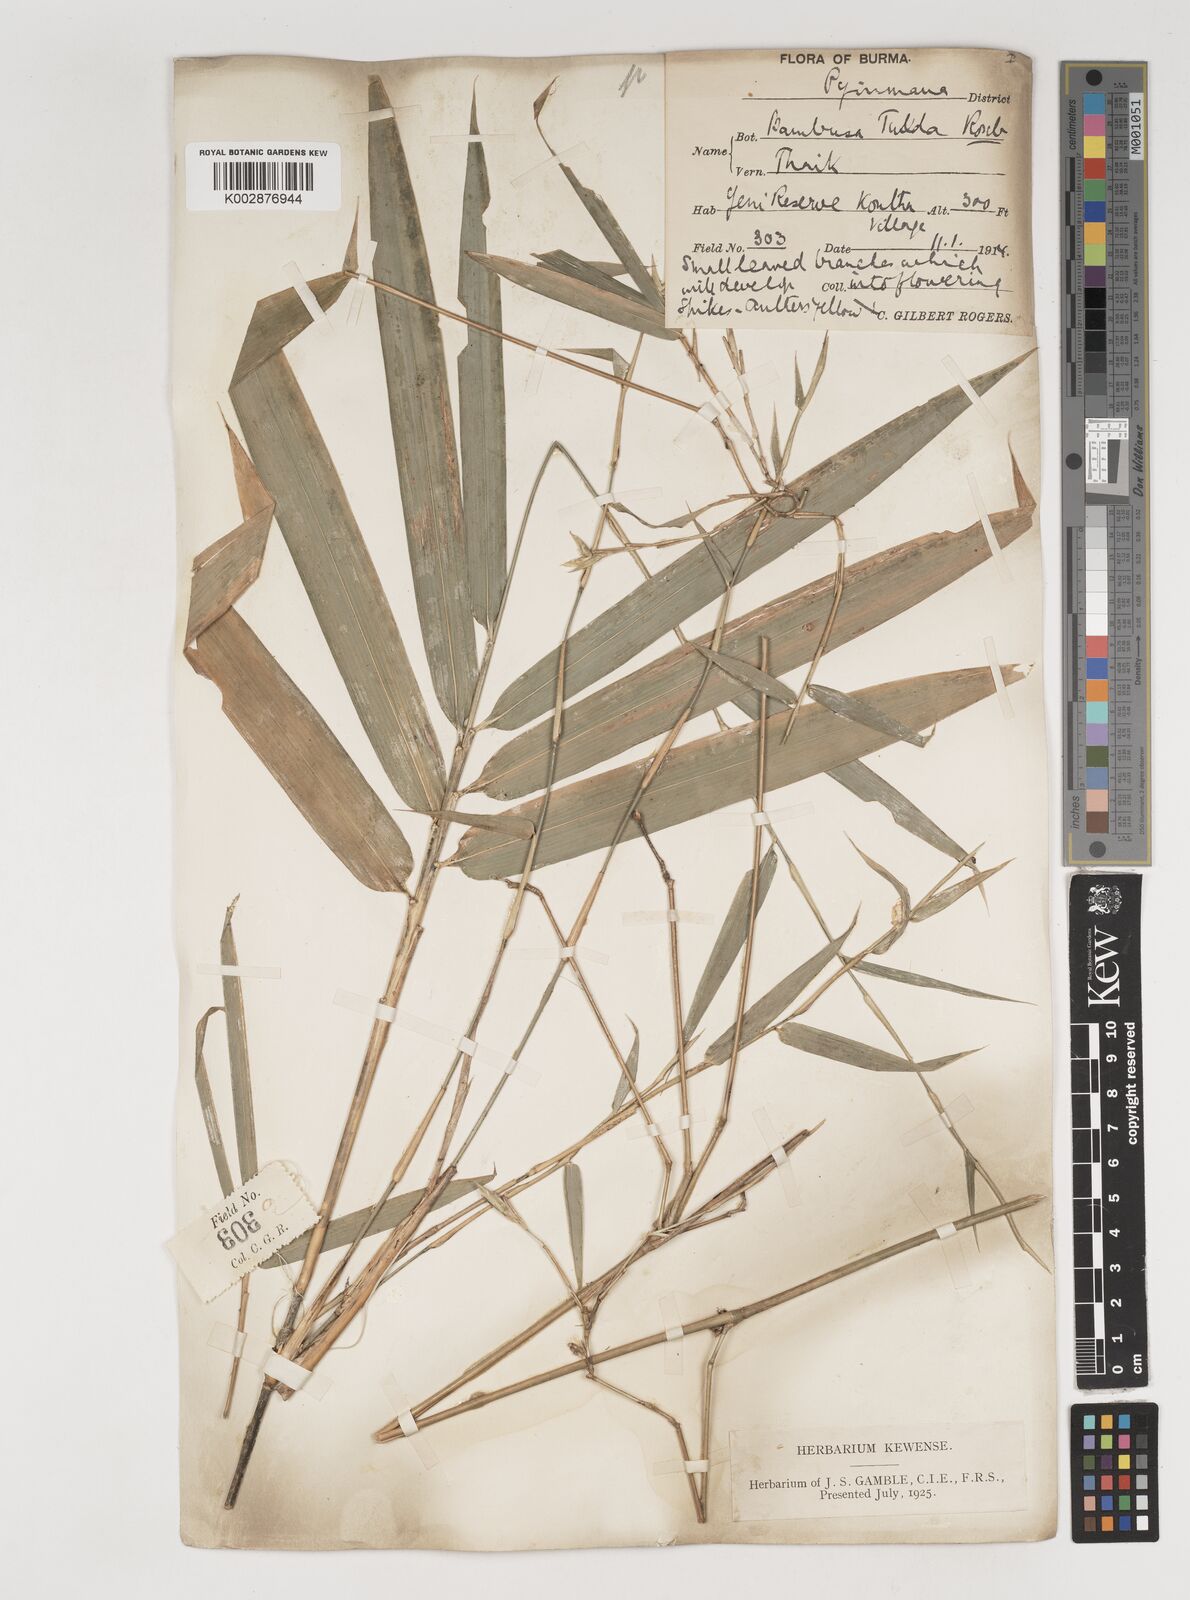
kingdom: Plantae
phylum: Tracheophyta
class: Liliopsida
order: Poales
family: Poaceae
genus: Bambusa
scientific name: Bambusa tulda
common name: Bengal bamboo
